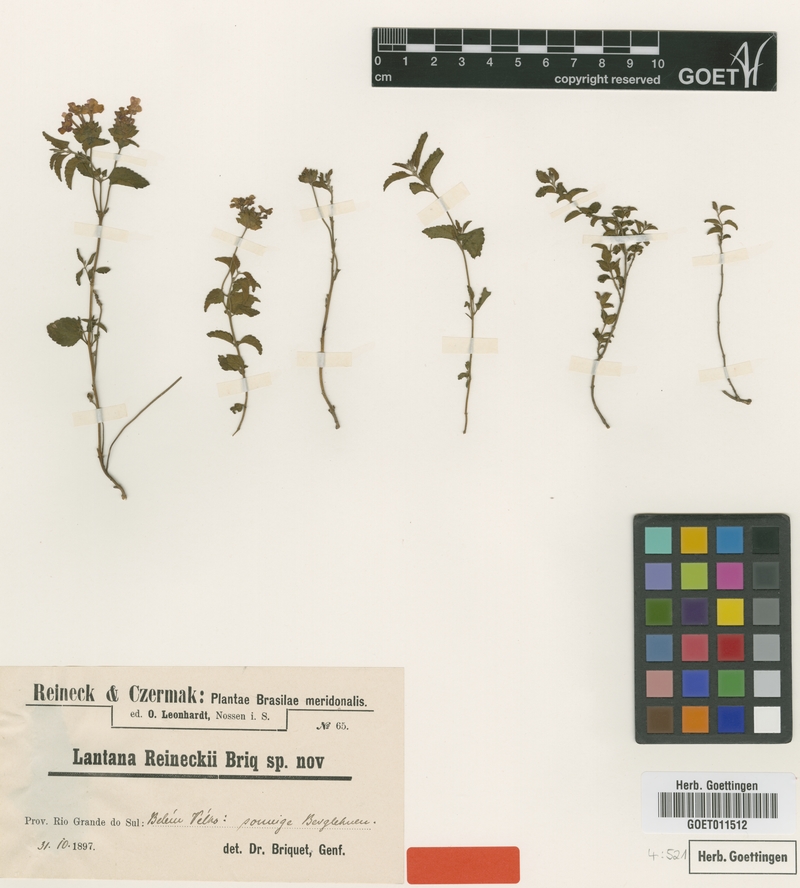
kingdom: Plantae
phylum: Tracheophyta
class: Magnoliopsida
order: Lamiales
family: Verbenaceae
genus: Lantana
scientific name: Lantana reineckii
